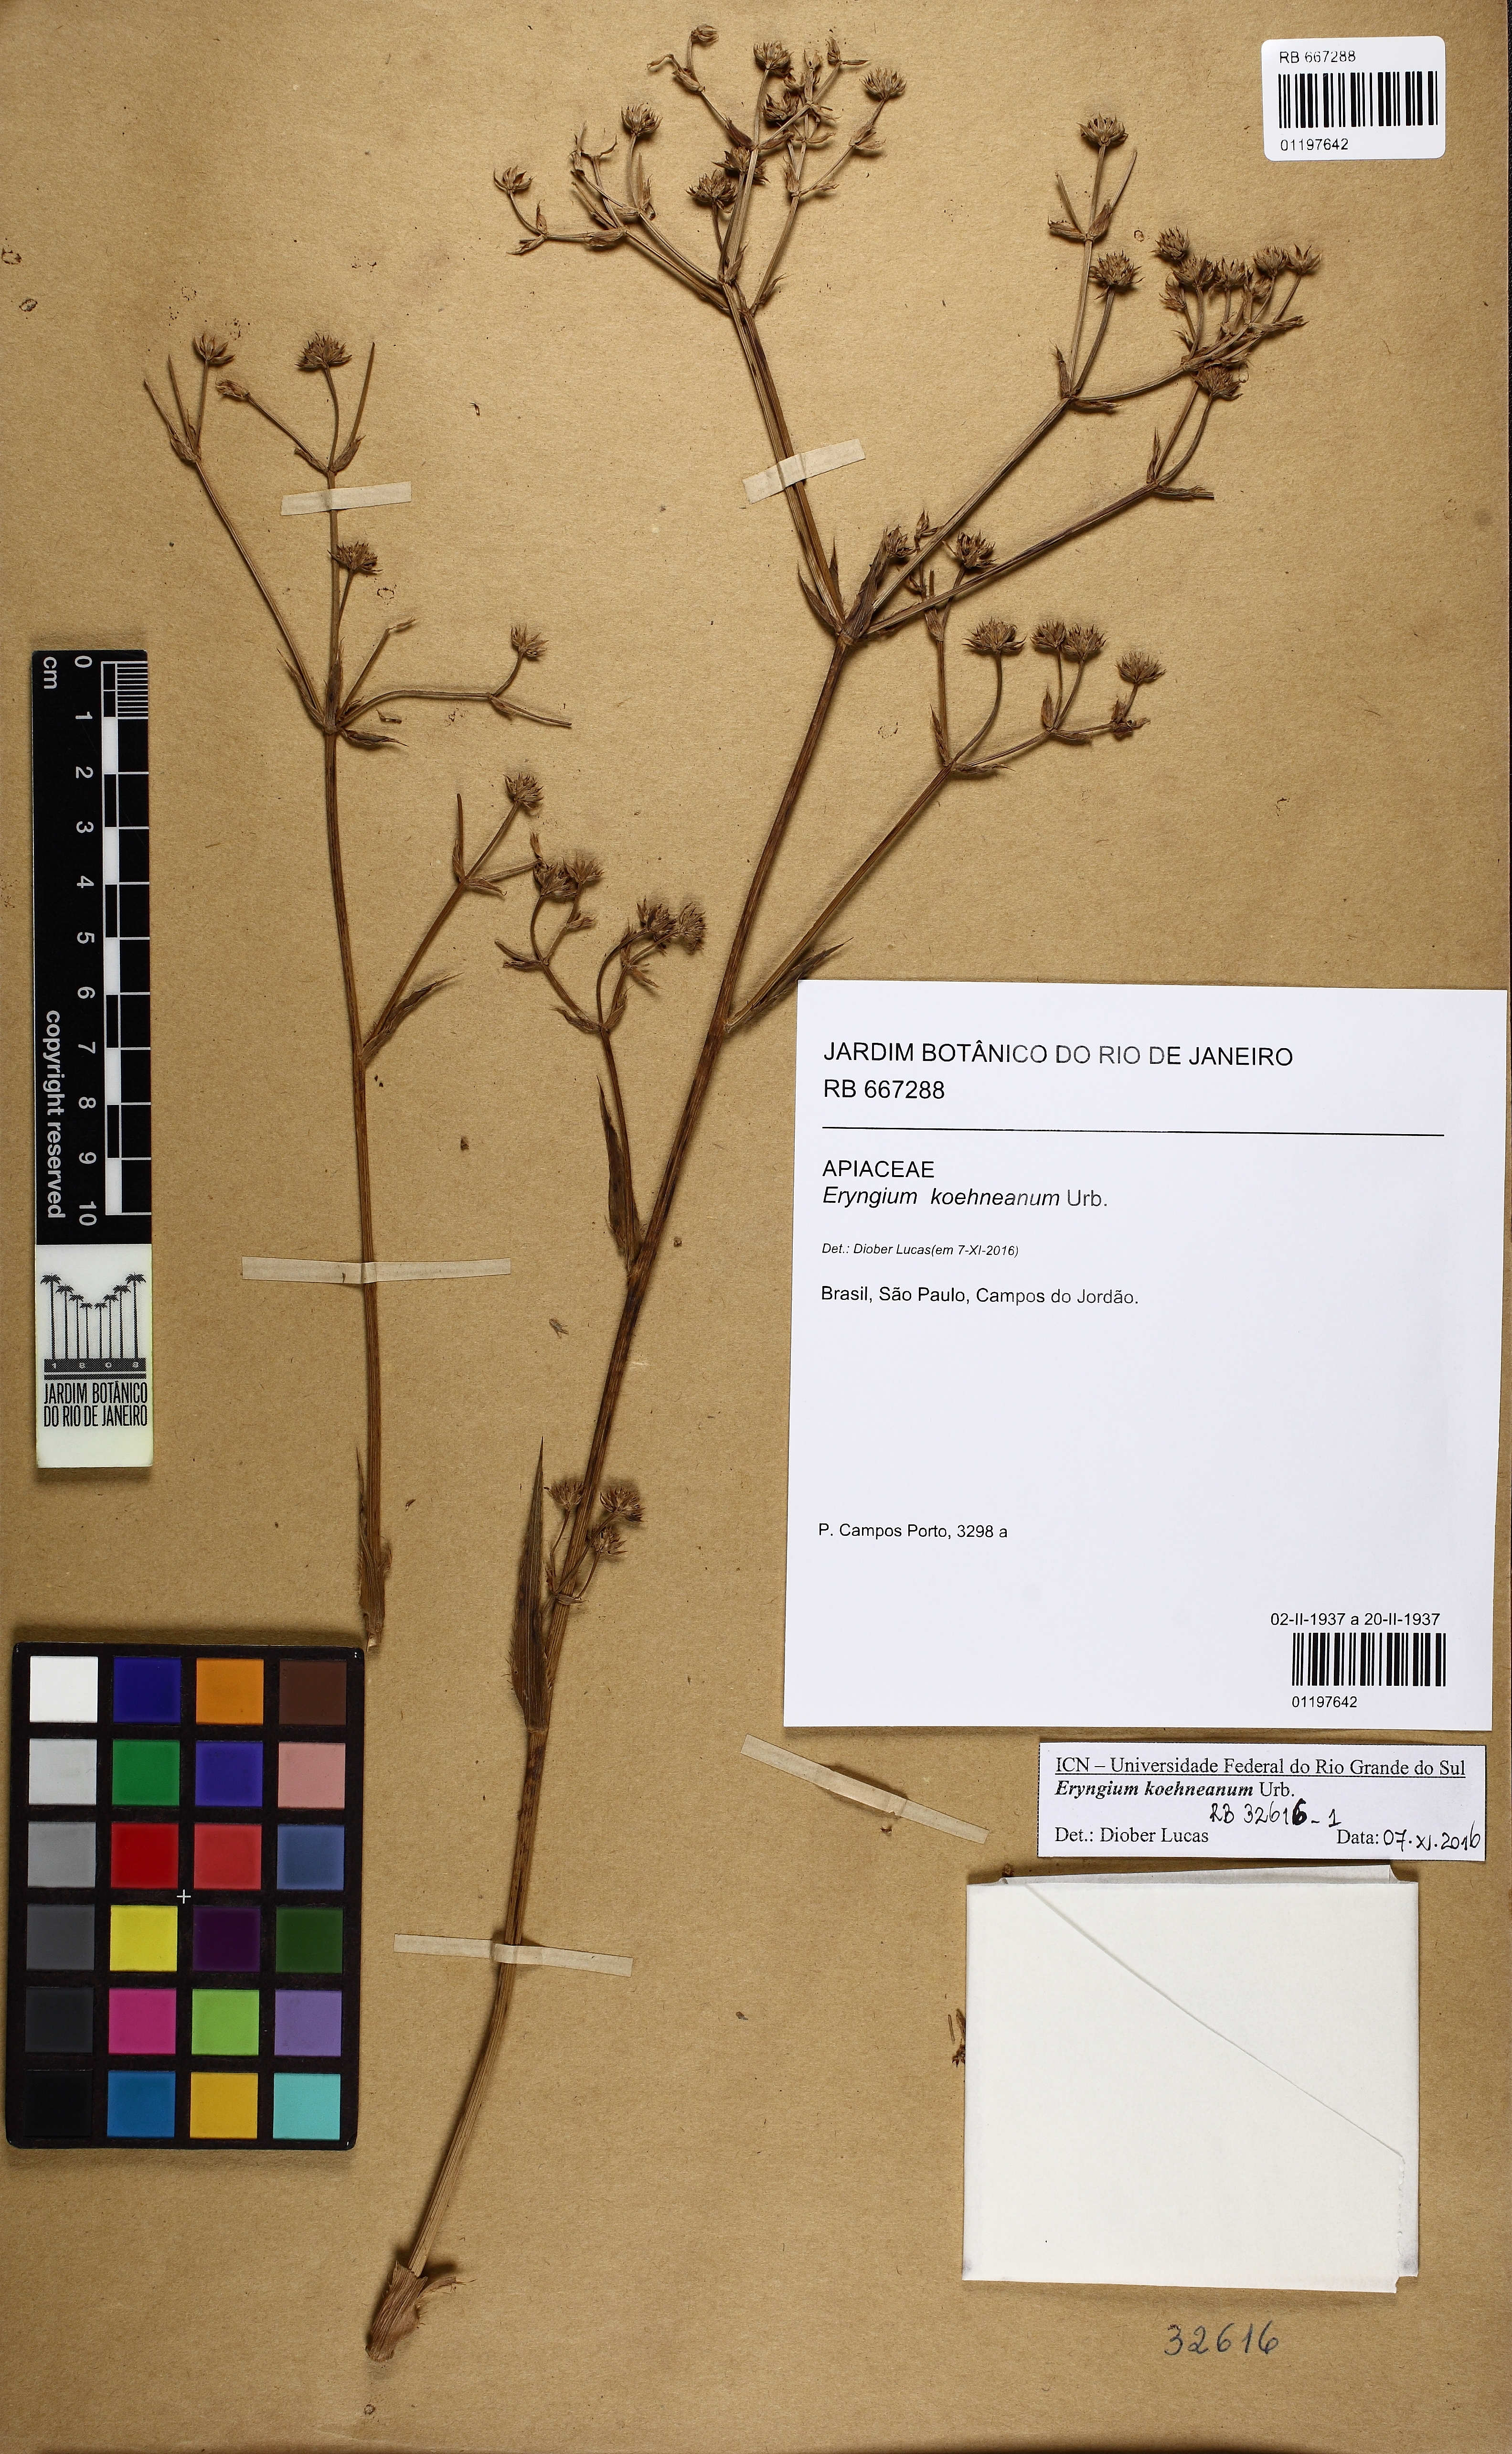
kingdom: Plantae
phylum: Tracheophyta
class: Magnoliopsida
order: Apiales
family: Apiaceae
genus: Eryngium
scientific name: Eryngium koehneanum
